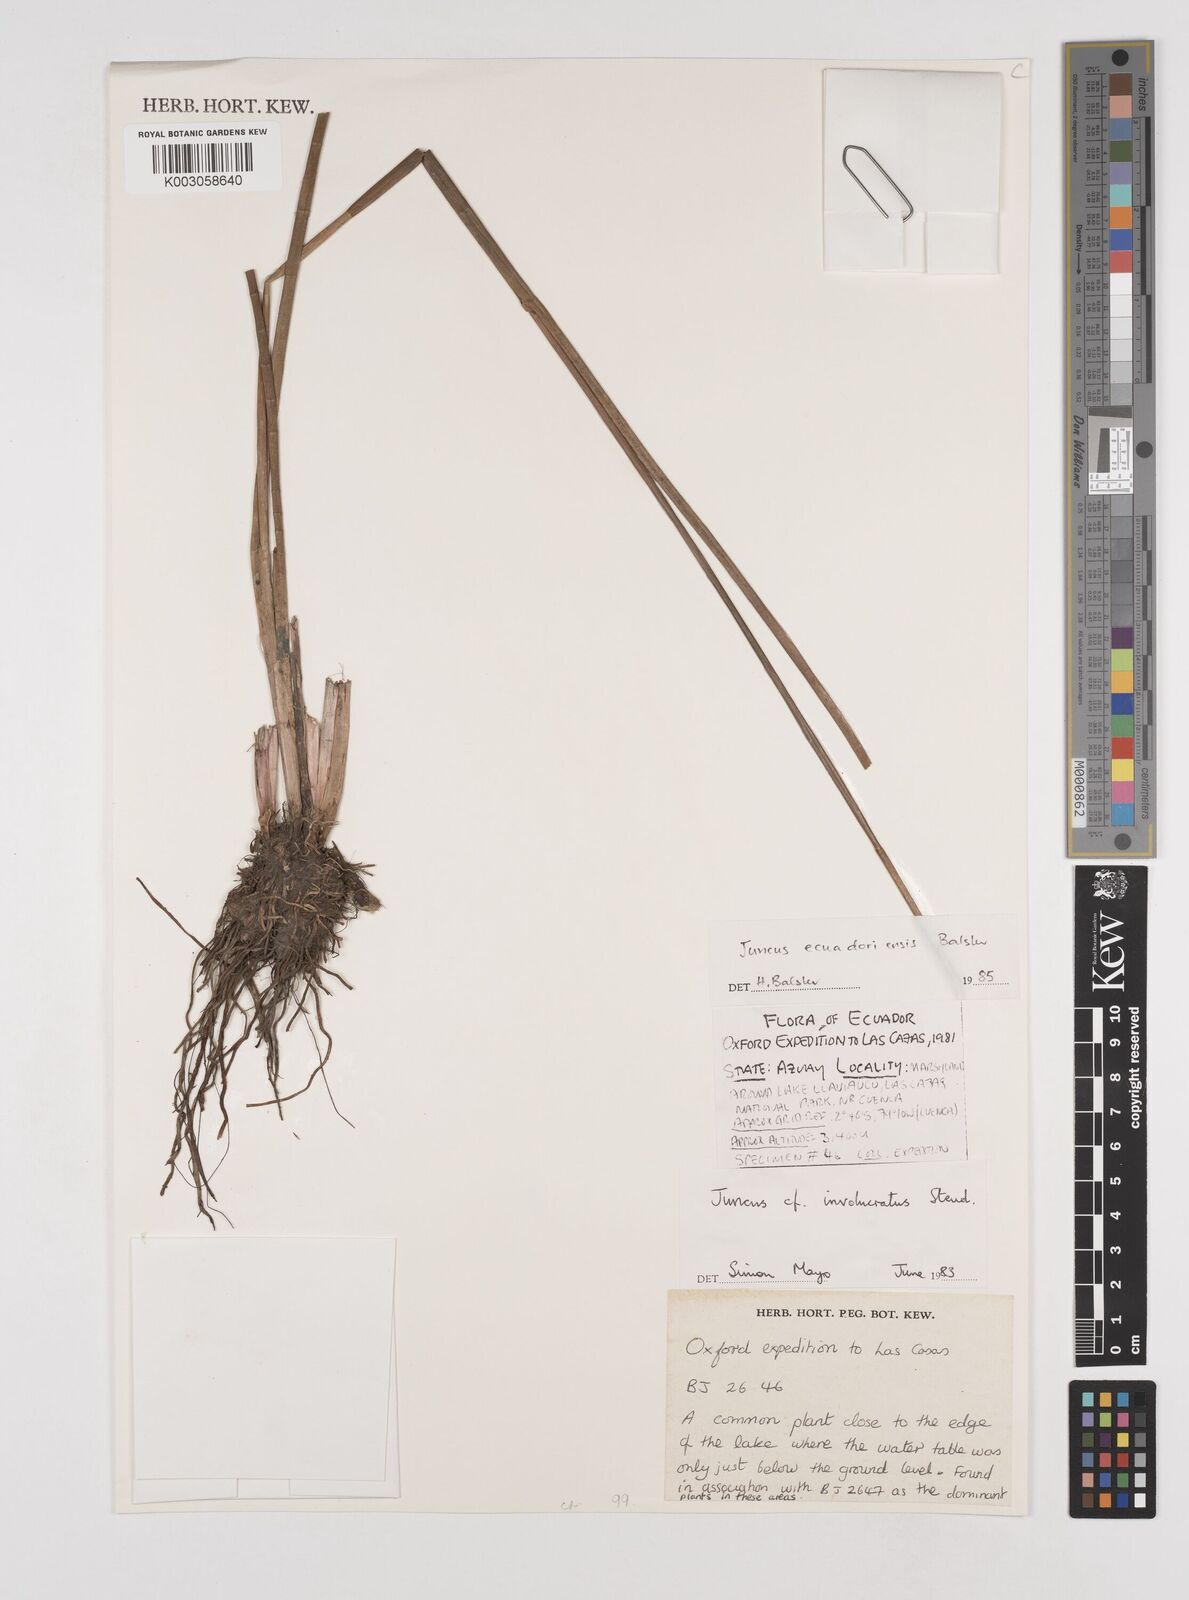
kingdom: Plantae
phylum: Tracheophyta
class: Liliopsida
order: Poales
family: Juncaceae
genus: Juncus
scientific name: Juncus ecuadoriensis
